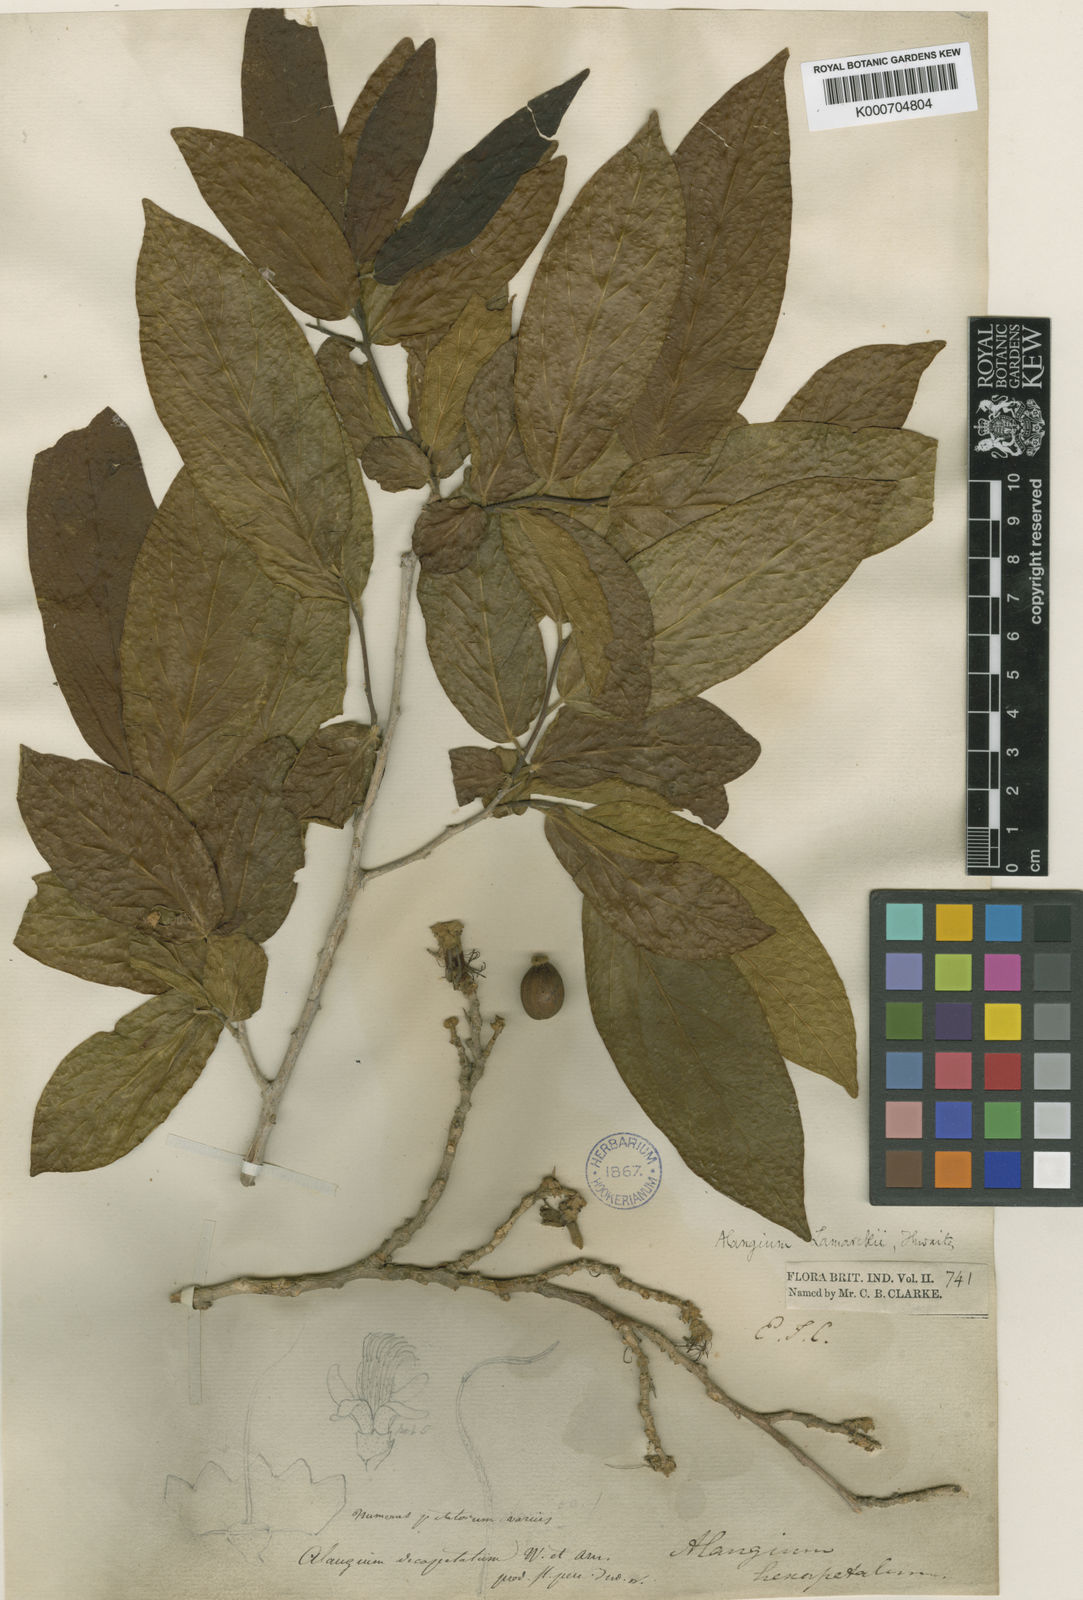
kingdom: Plantae
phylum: Tracheophyta
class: Magnoliopsida
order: Cornales
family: Cornaceae
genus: Alangium
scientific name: Alangium salviifolium
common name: Sage-leaf alangium
